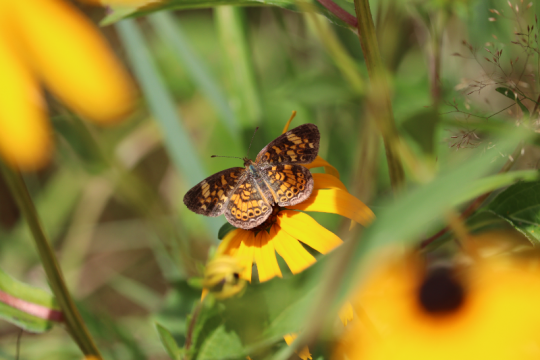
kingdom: Animalia
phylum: Arthropoda
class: Insecta
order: Lepidoptera
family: Nymphalidae
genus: Phyciodes
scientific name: Phyciodes
